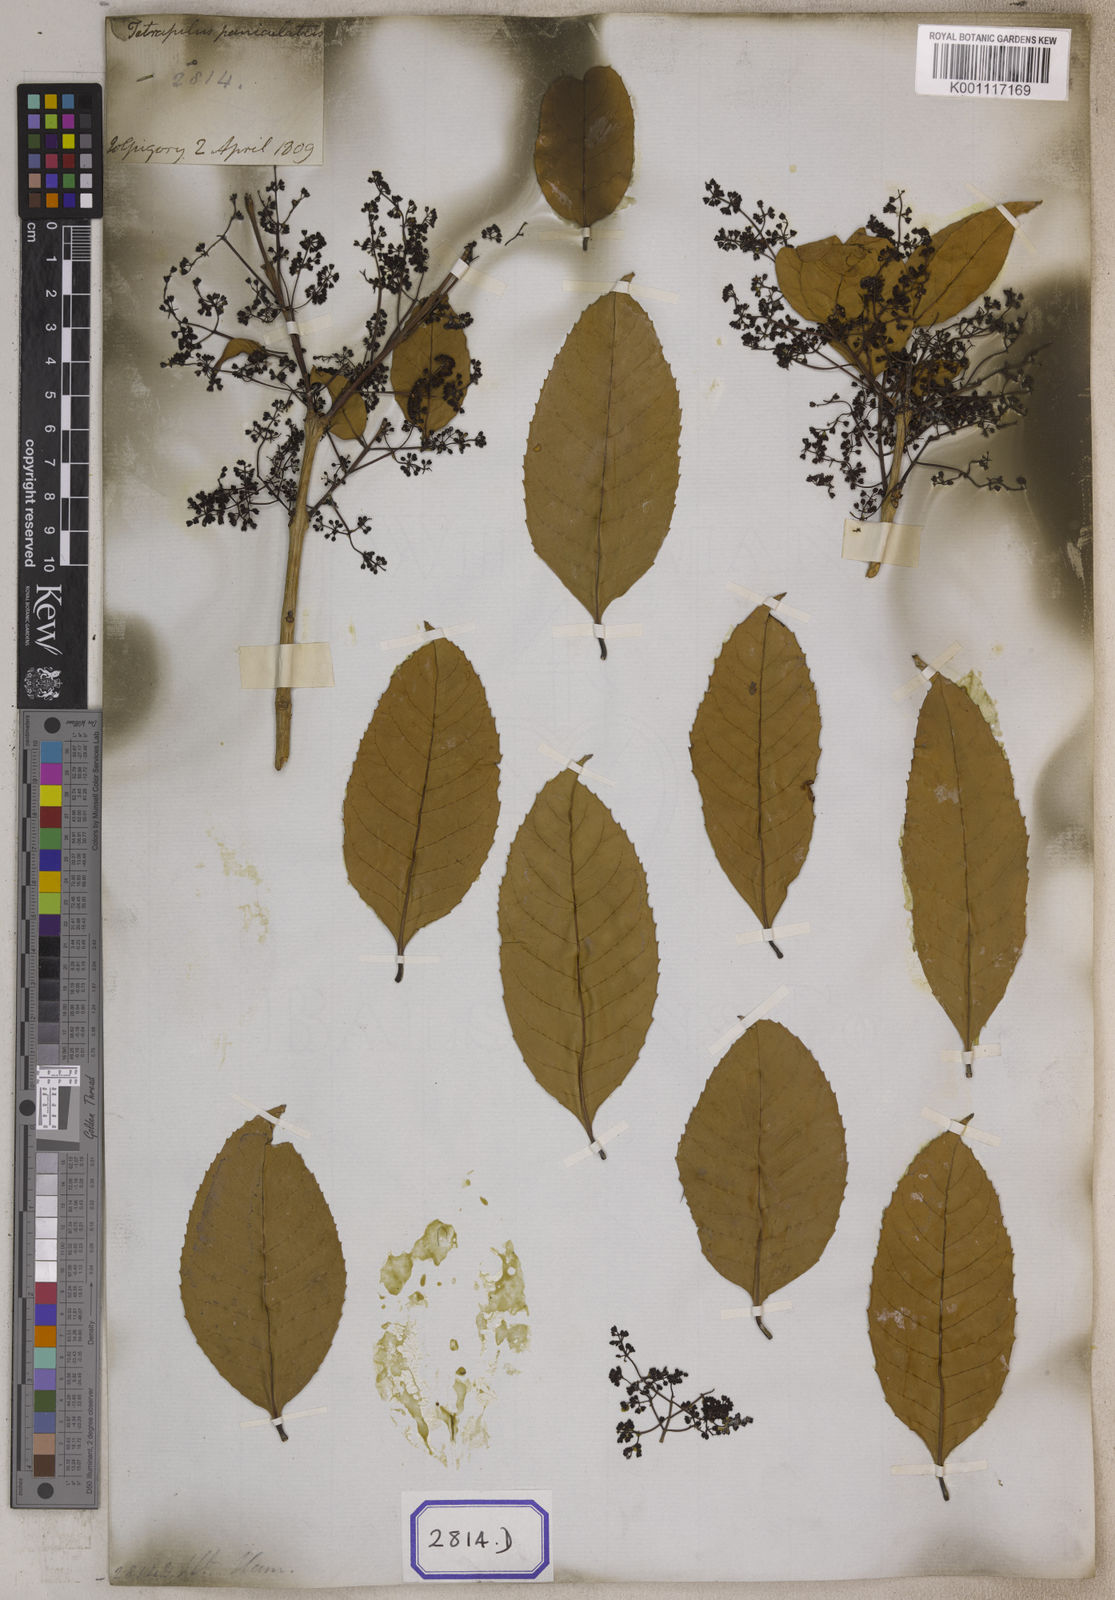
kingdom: Plantae
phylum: Tracheophyta
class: Magnoliopsida
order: Lamiales
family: Oleaceae
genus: Tetrapilus
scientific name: Tetrapilus dioicus
